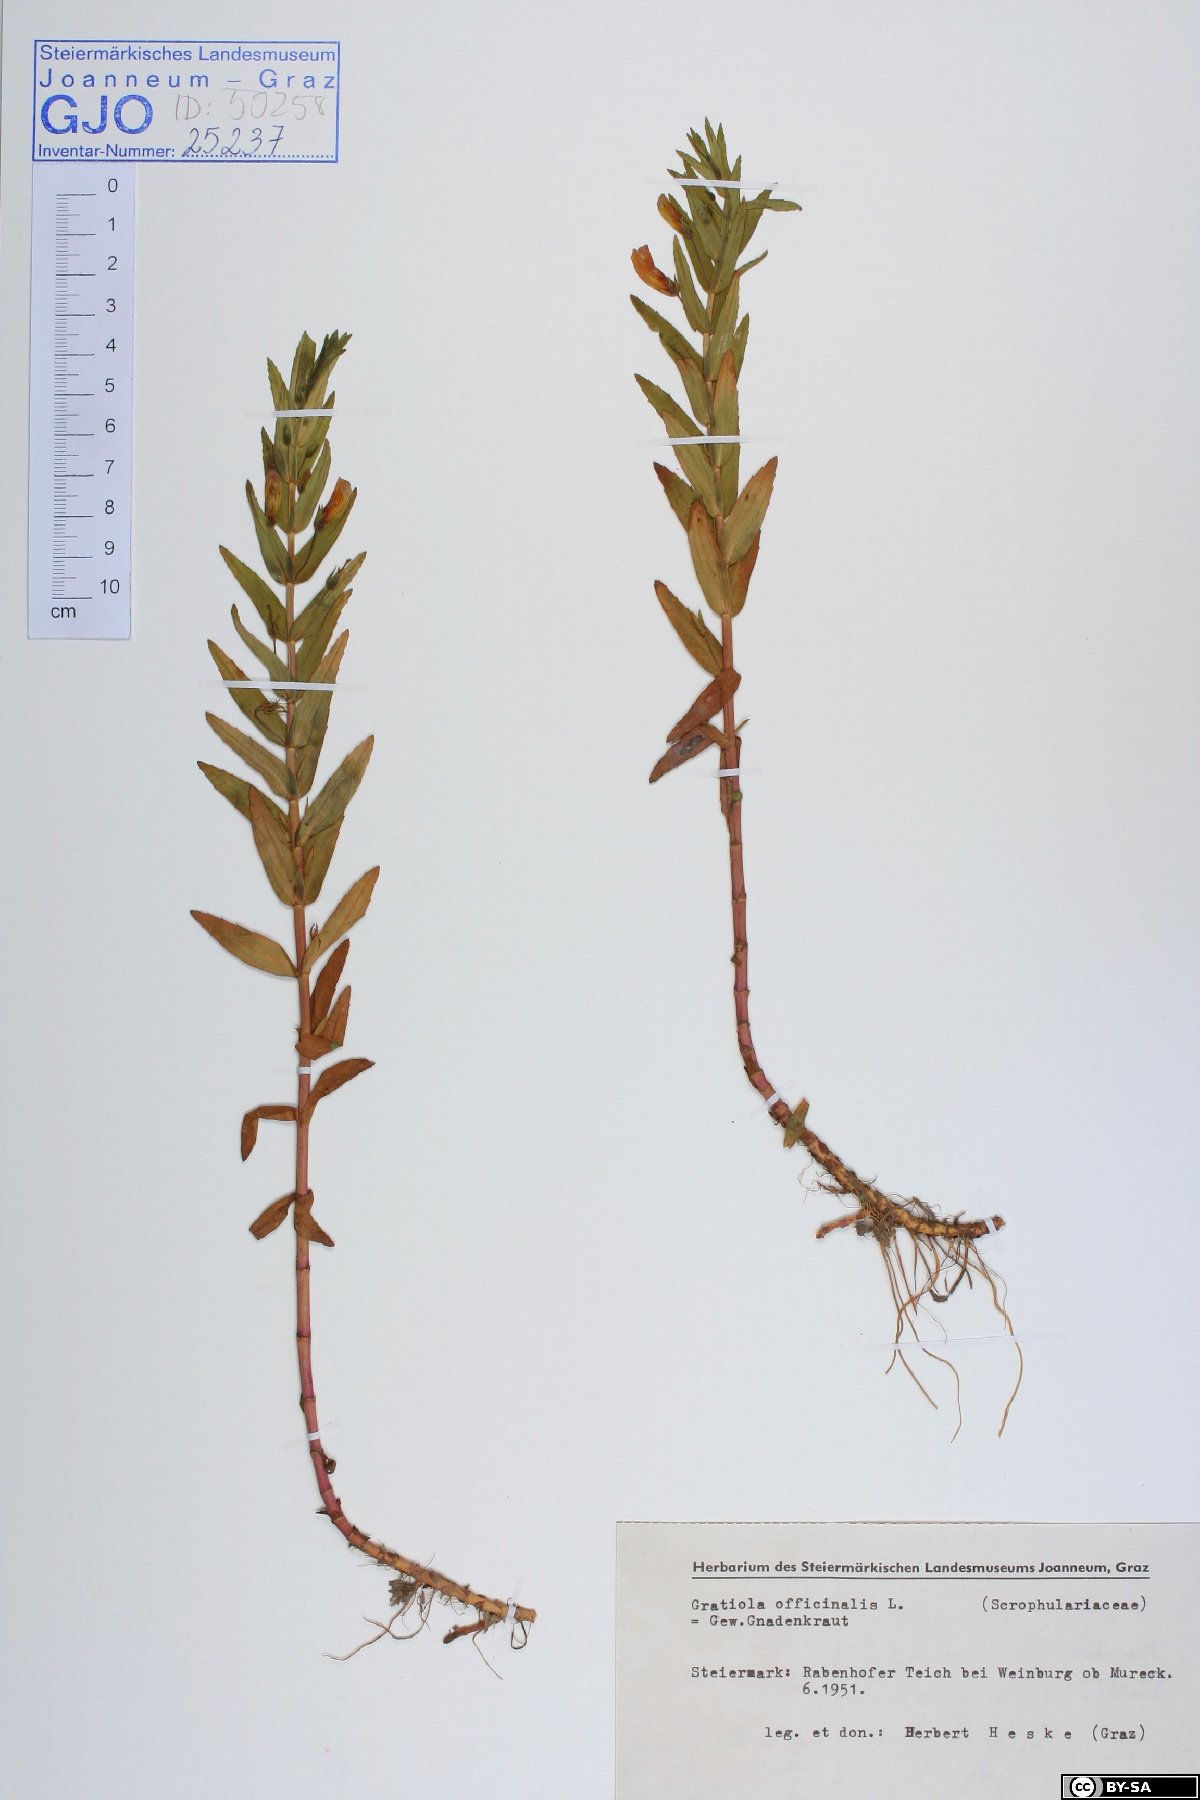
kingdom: Plantae
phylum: Tracheophyta
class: Magnoliopsida
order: Lamiales
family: Plantaginaceae
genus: Gratiola
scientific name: Gratiola officinalis
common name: Gratiola
